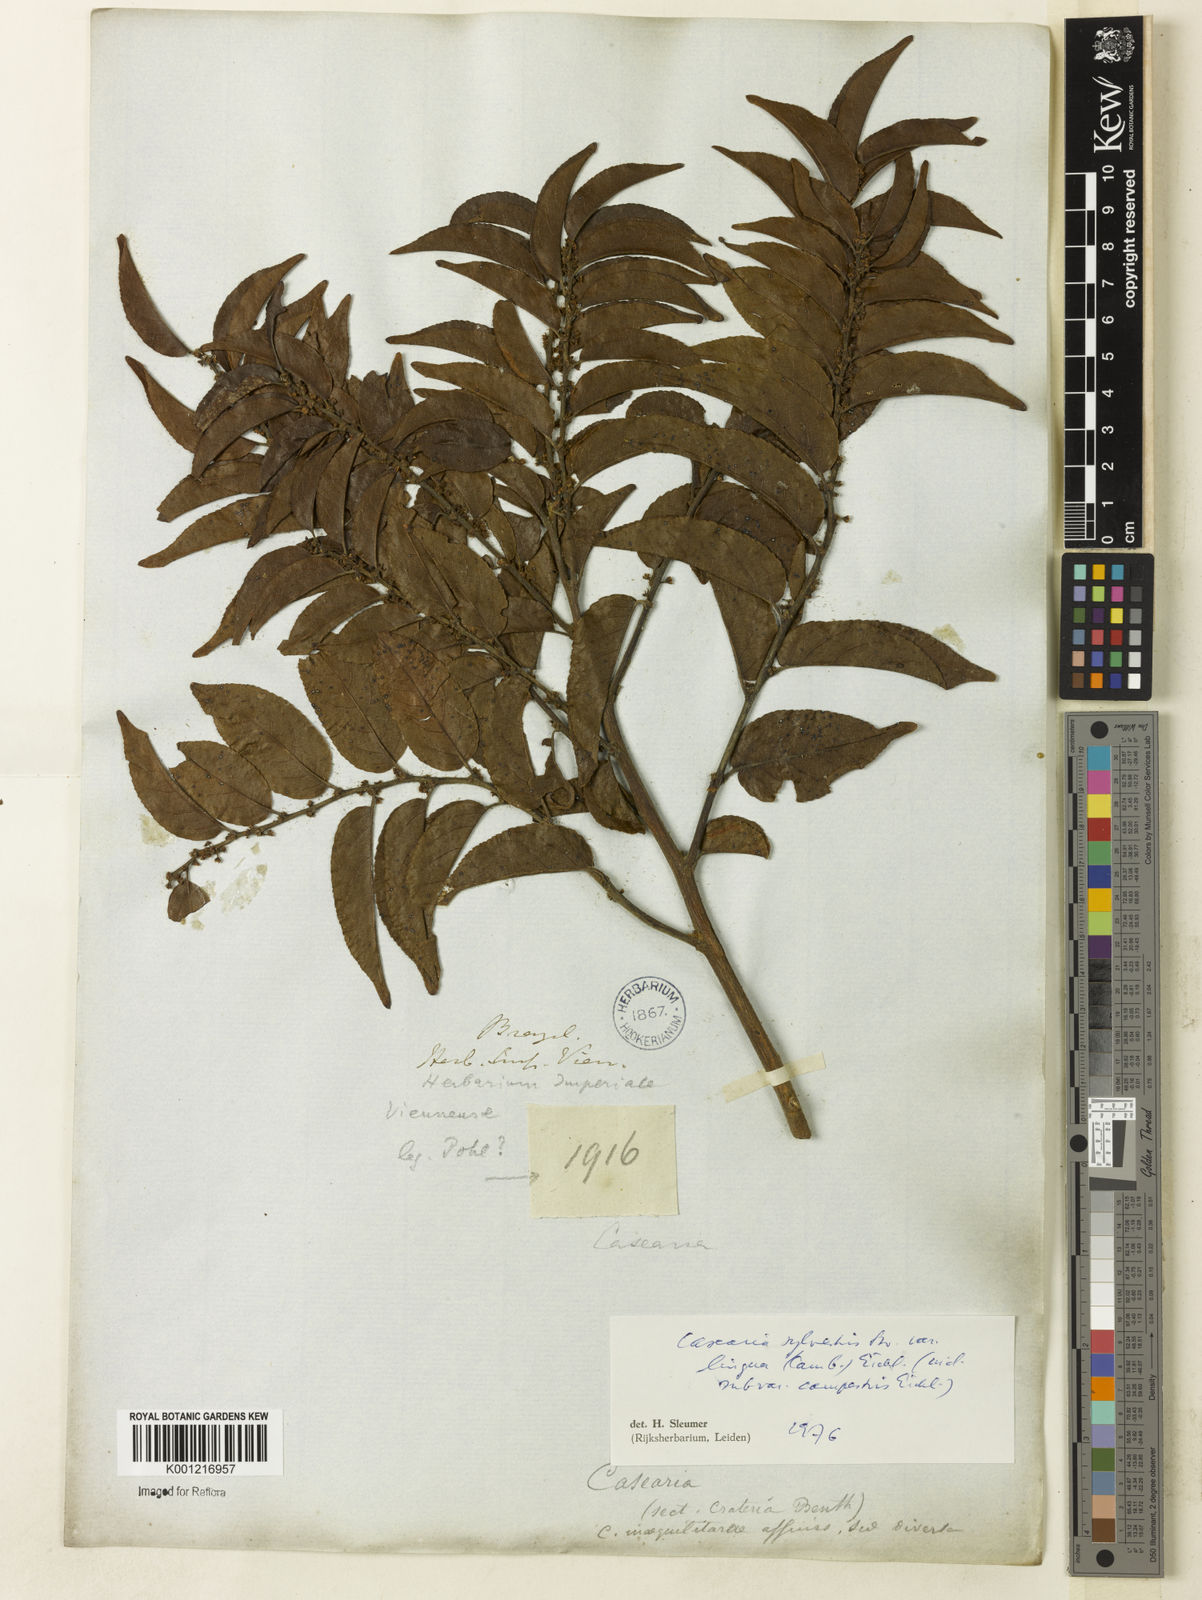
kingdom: Plantae
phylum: Tracheophyta
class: Magnoliopsida
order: Malpighiales
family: Salicaceae
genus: Casearia
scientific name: Casearia sylvestris
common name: Wild sage
